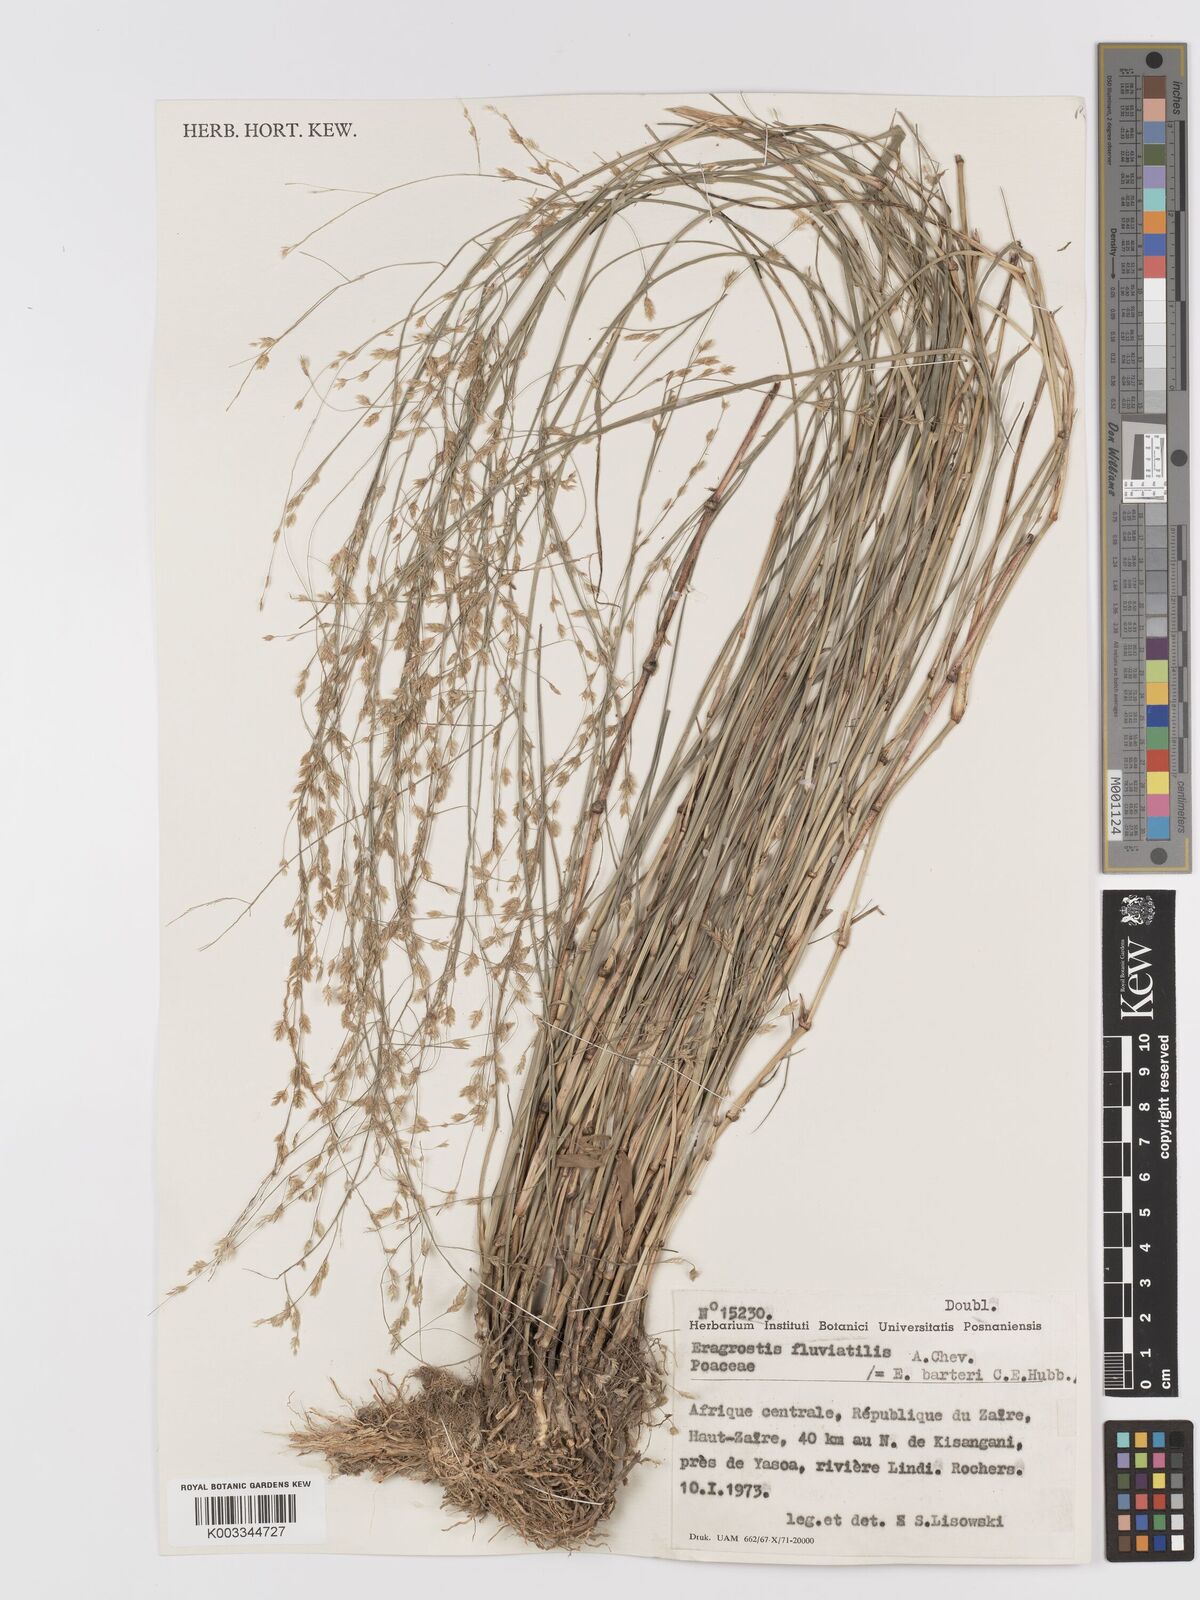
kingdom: Plantae
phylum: Tracheophyta
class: Liliopsida
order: Poales
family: Poaceae
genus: Eragrostis
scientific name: Eragrostis barteri
